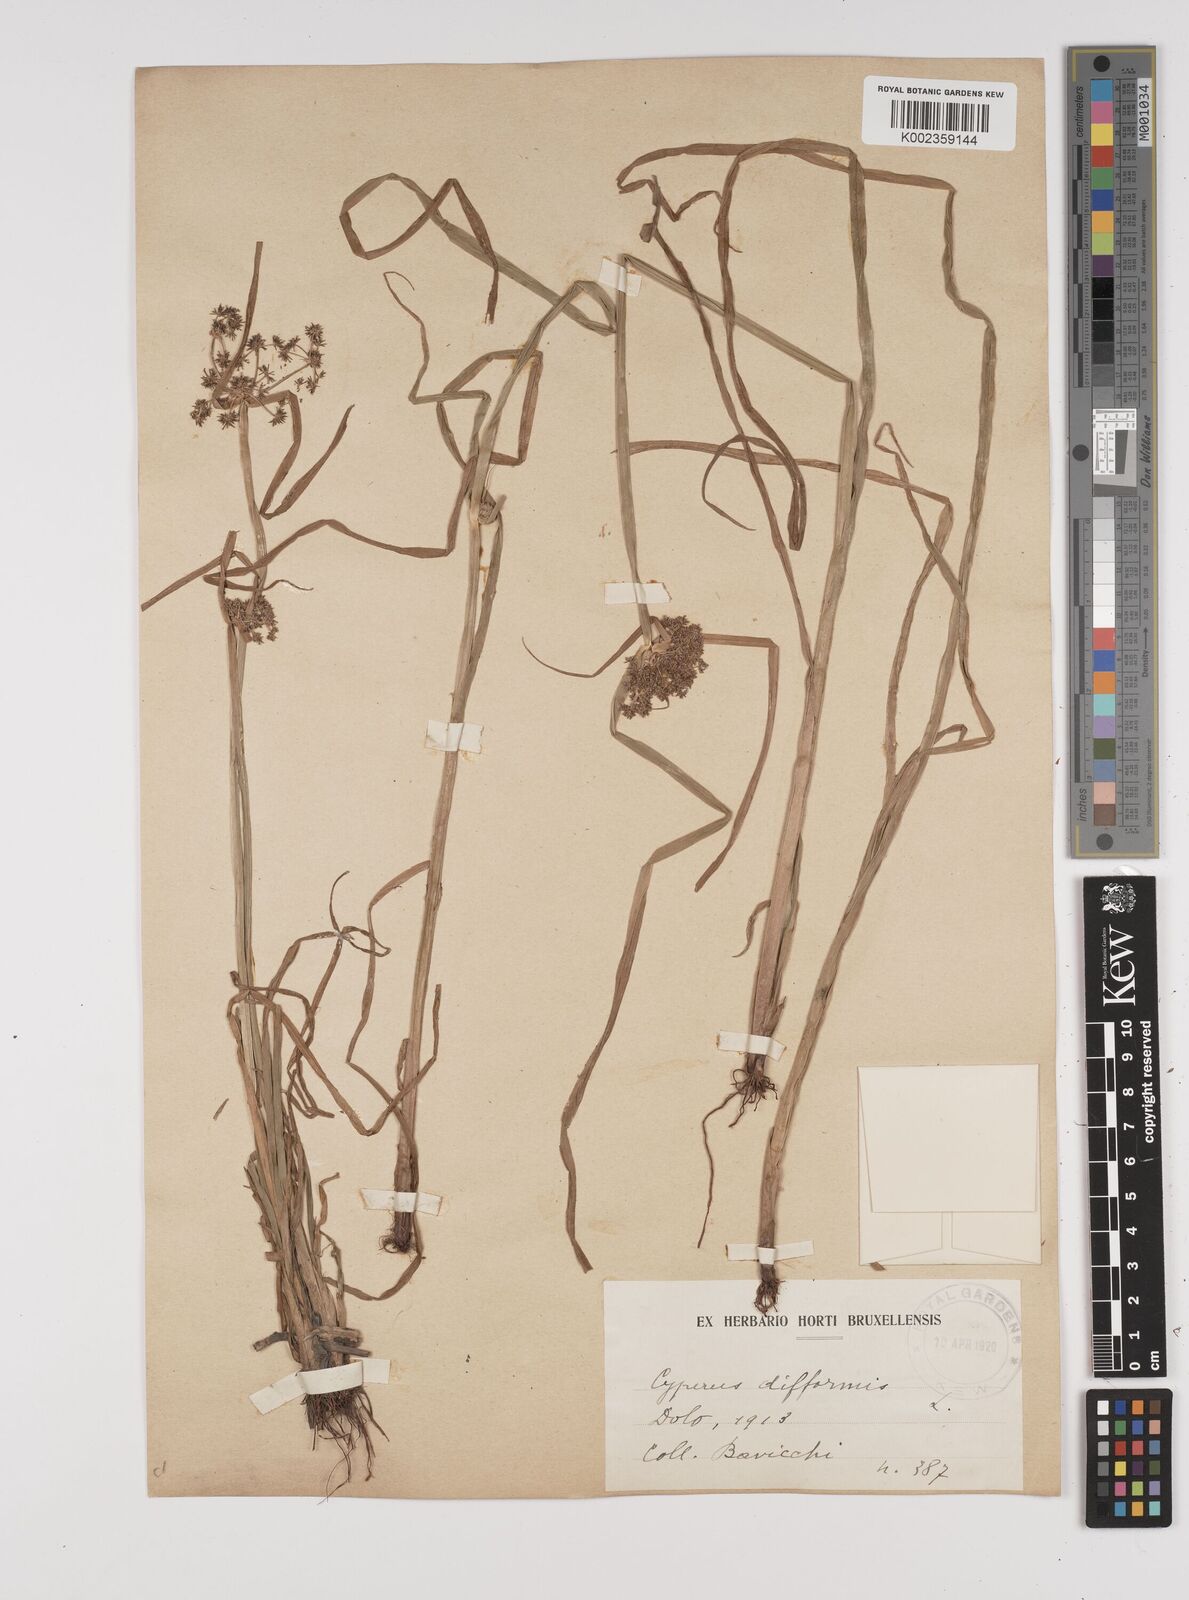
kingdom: Plantae
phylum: Tracheophyta
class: Liliopsida
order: Poales
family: Cyperaceae
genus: Cyperus
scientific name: Cyperus difformis
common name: Variable flatsedge
